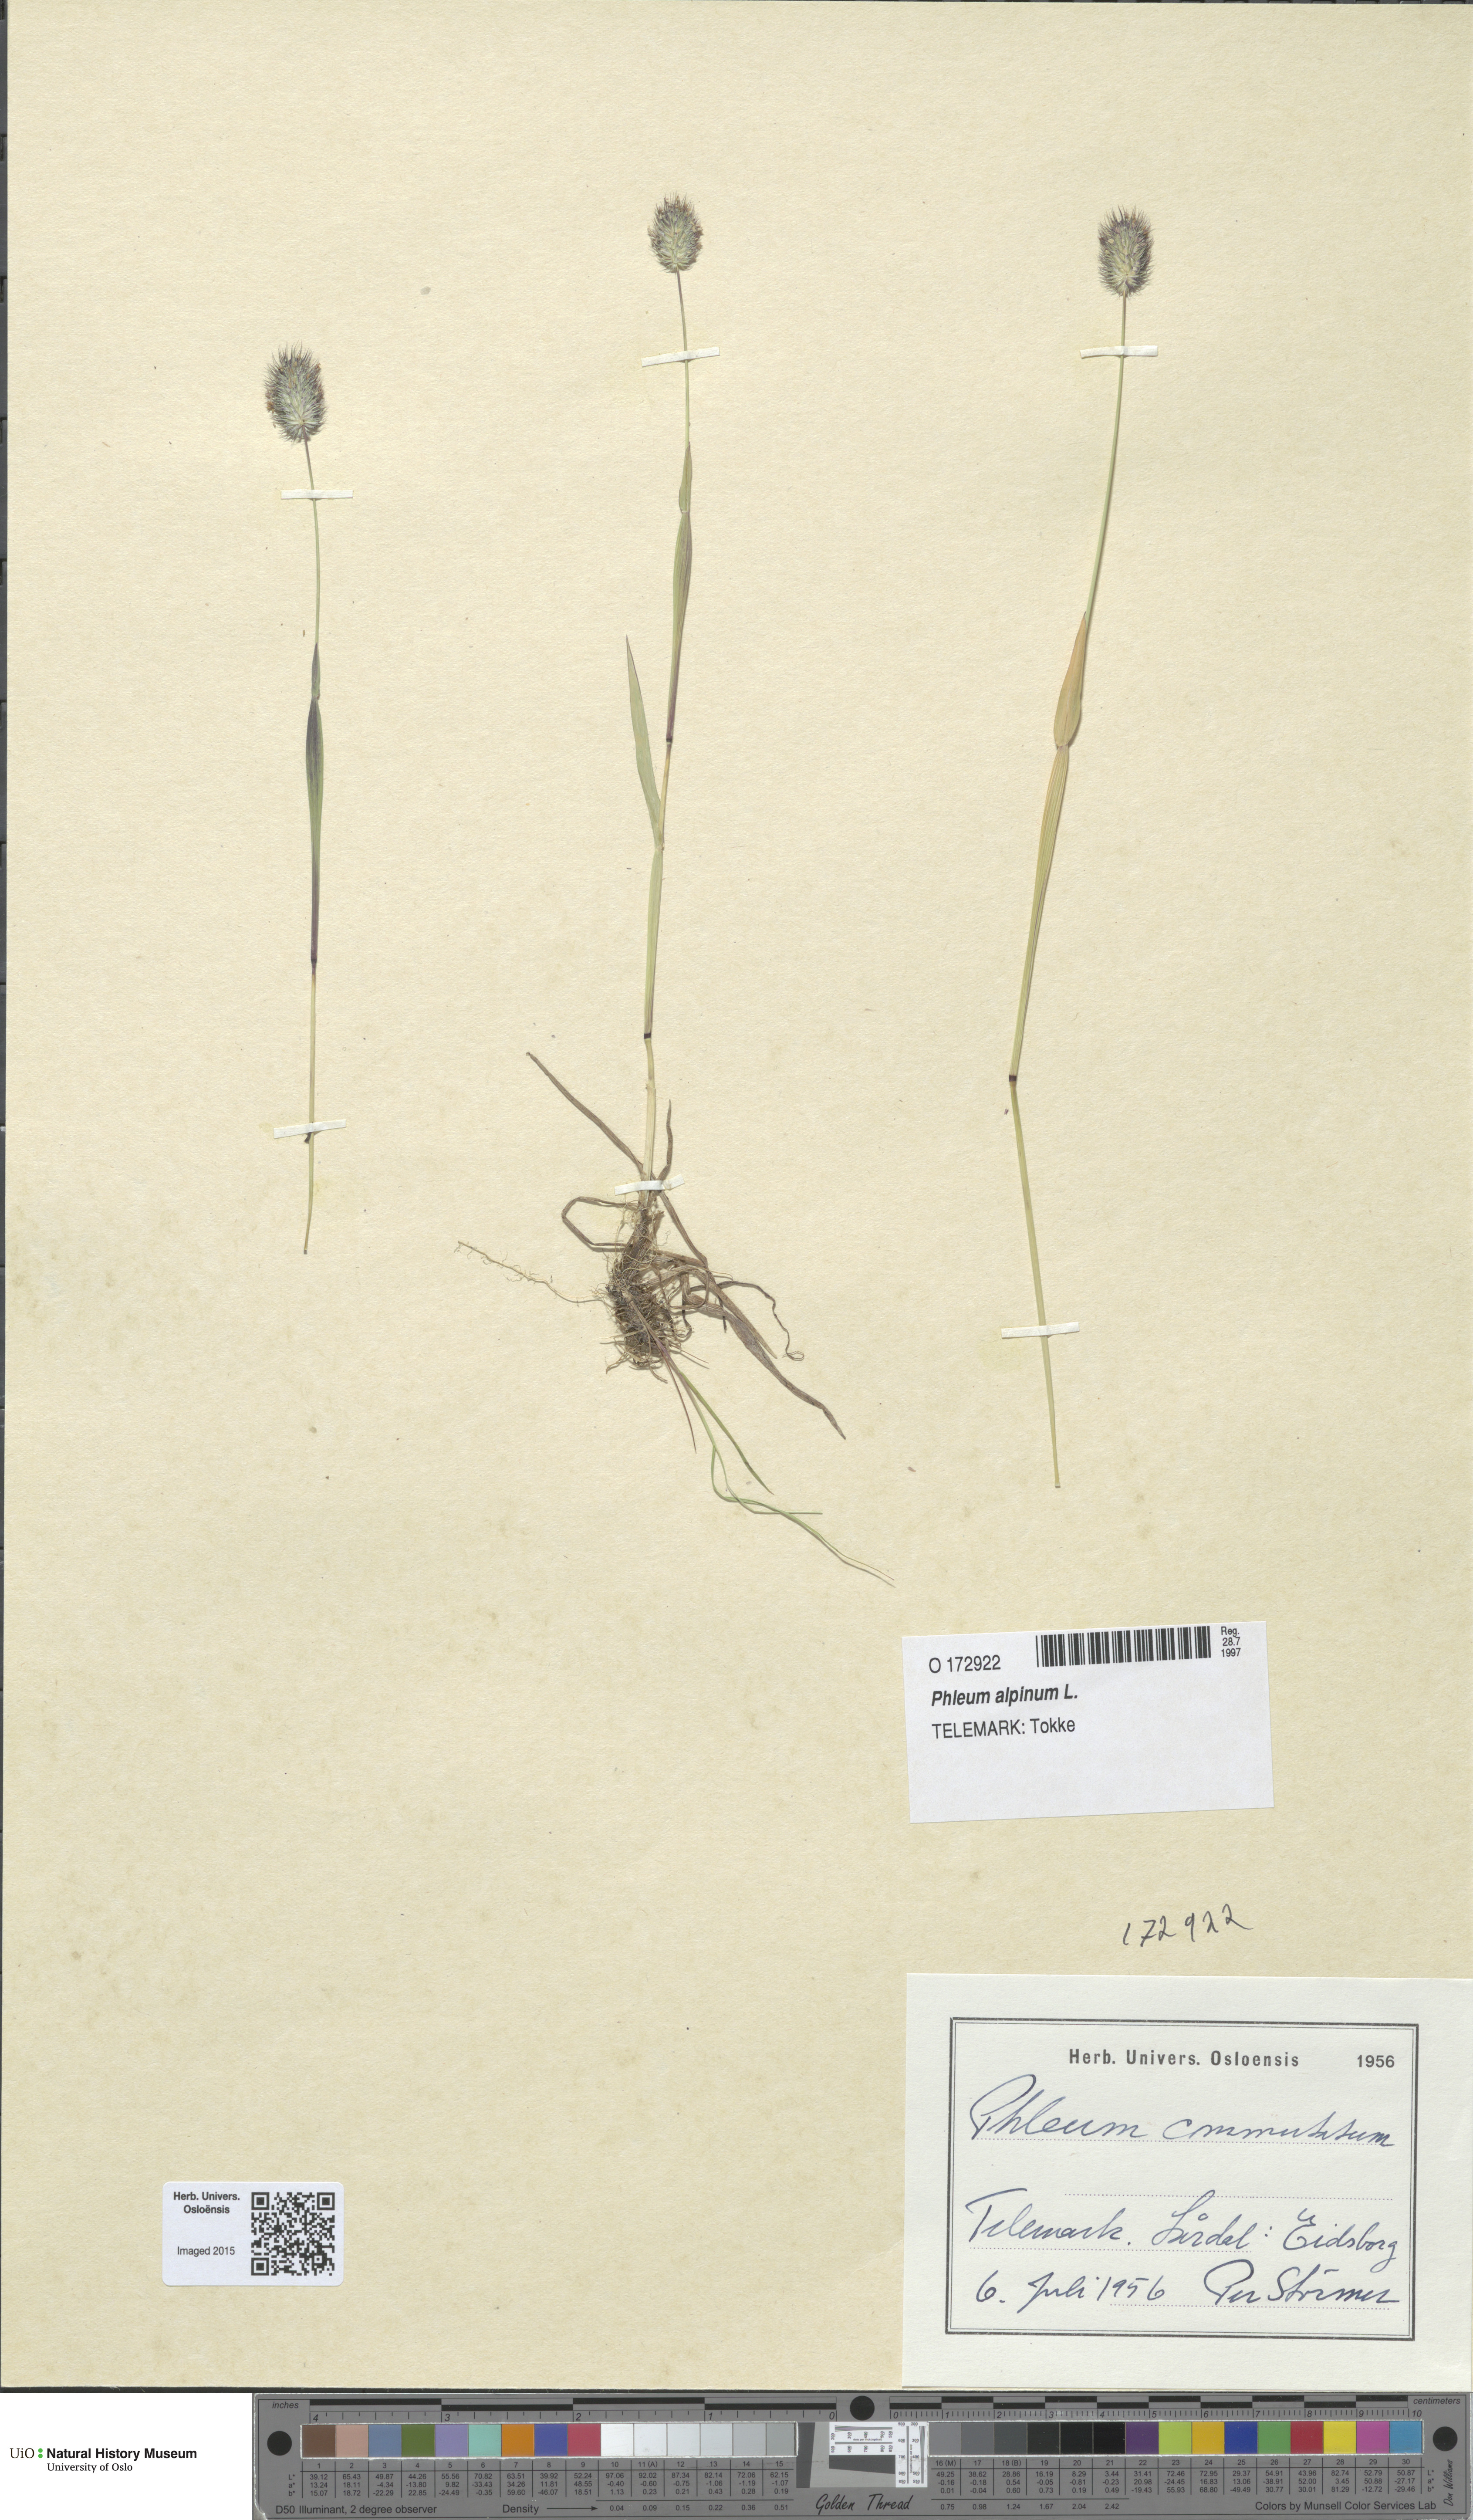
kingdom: Plantae
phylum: Tracheophyta
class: Liliopsida
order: Poales
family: Poaceae
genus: Phleum
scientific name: Phleum alpinum
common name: Alpine cat's-tail
